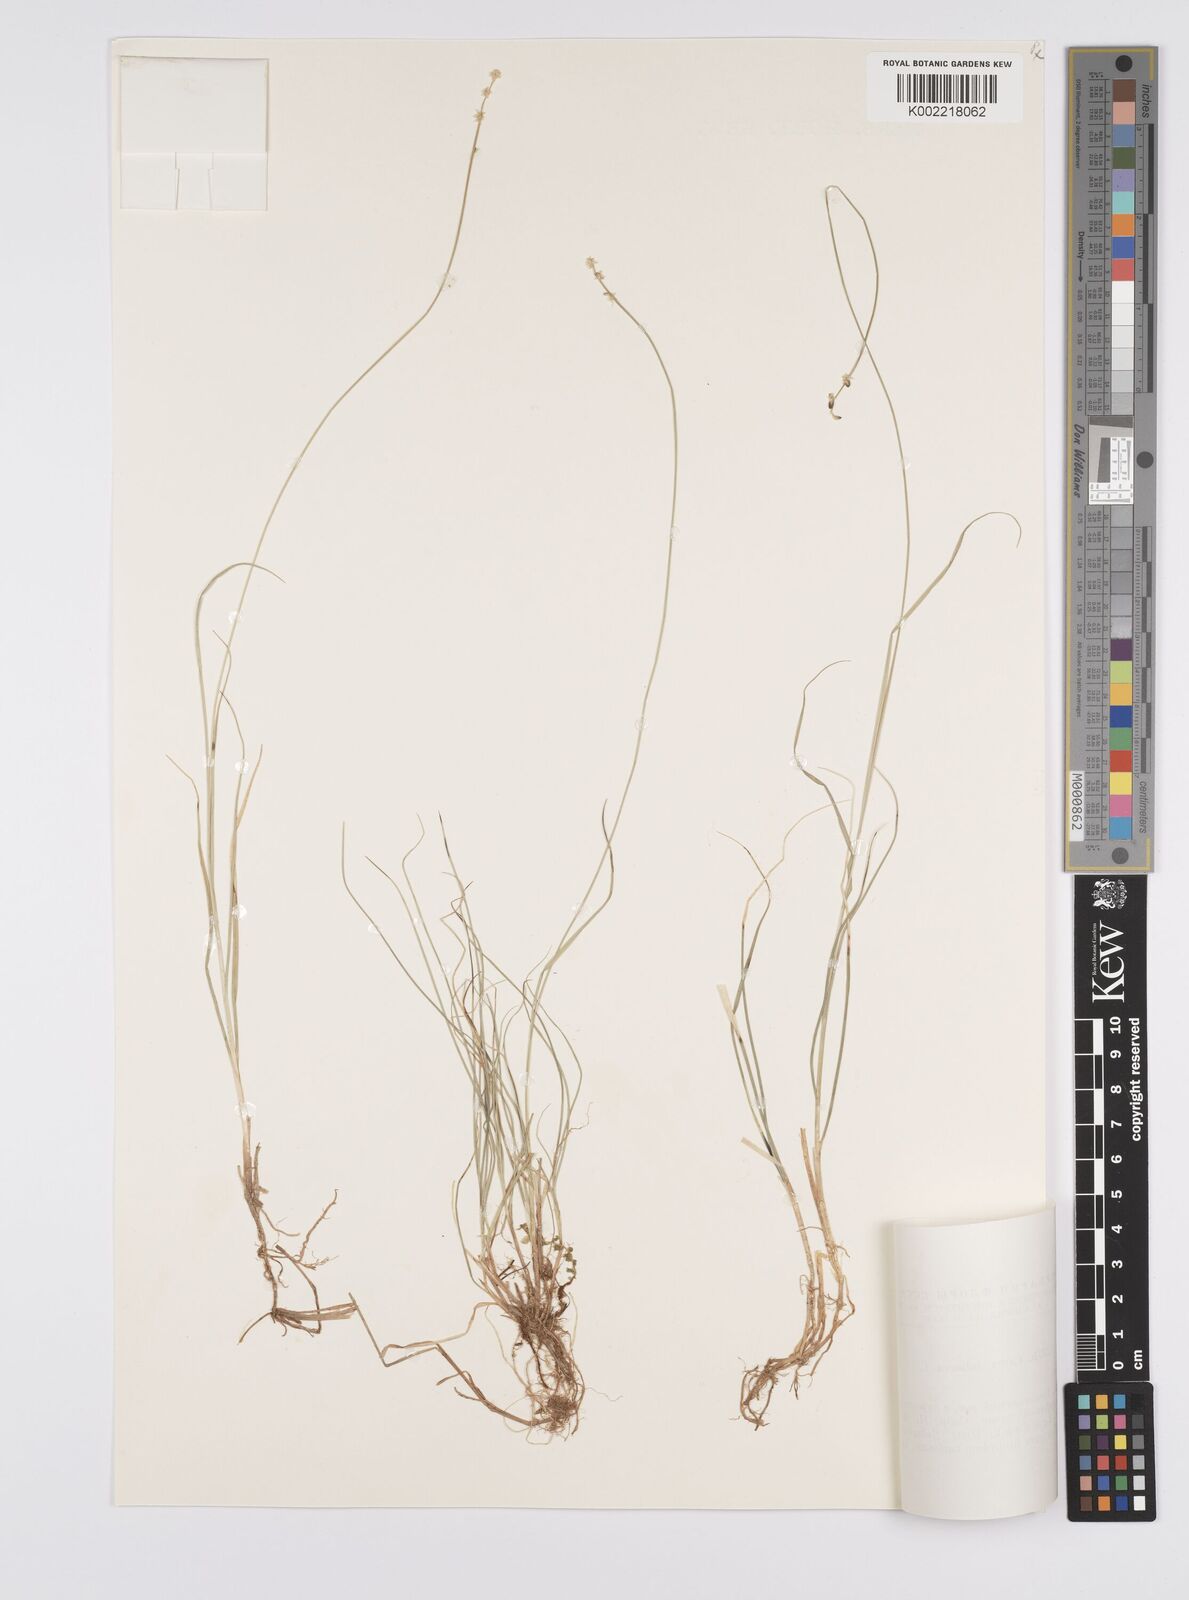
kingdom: Plantae
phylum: Tracheophyta
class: Liliopsida
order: Poales
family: Cyperaceae
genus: Carex
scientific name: Carex loliacea
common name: Ryegrass sedge
